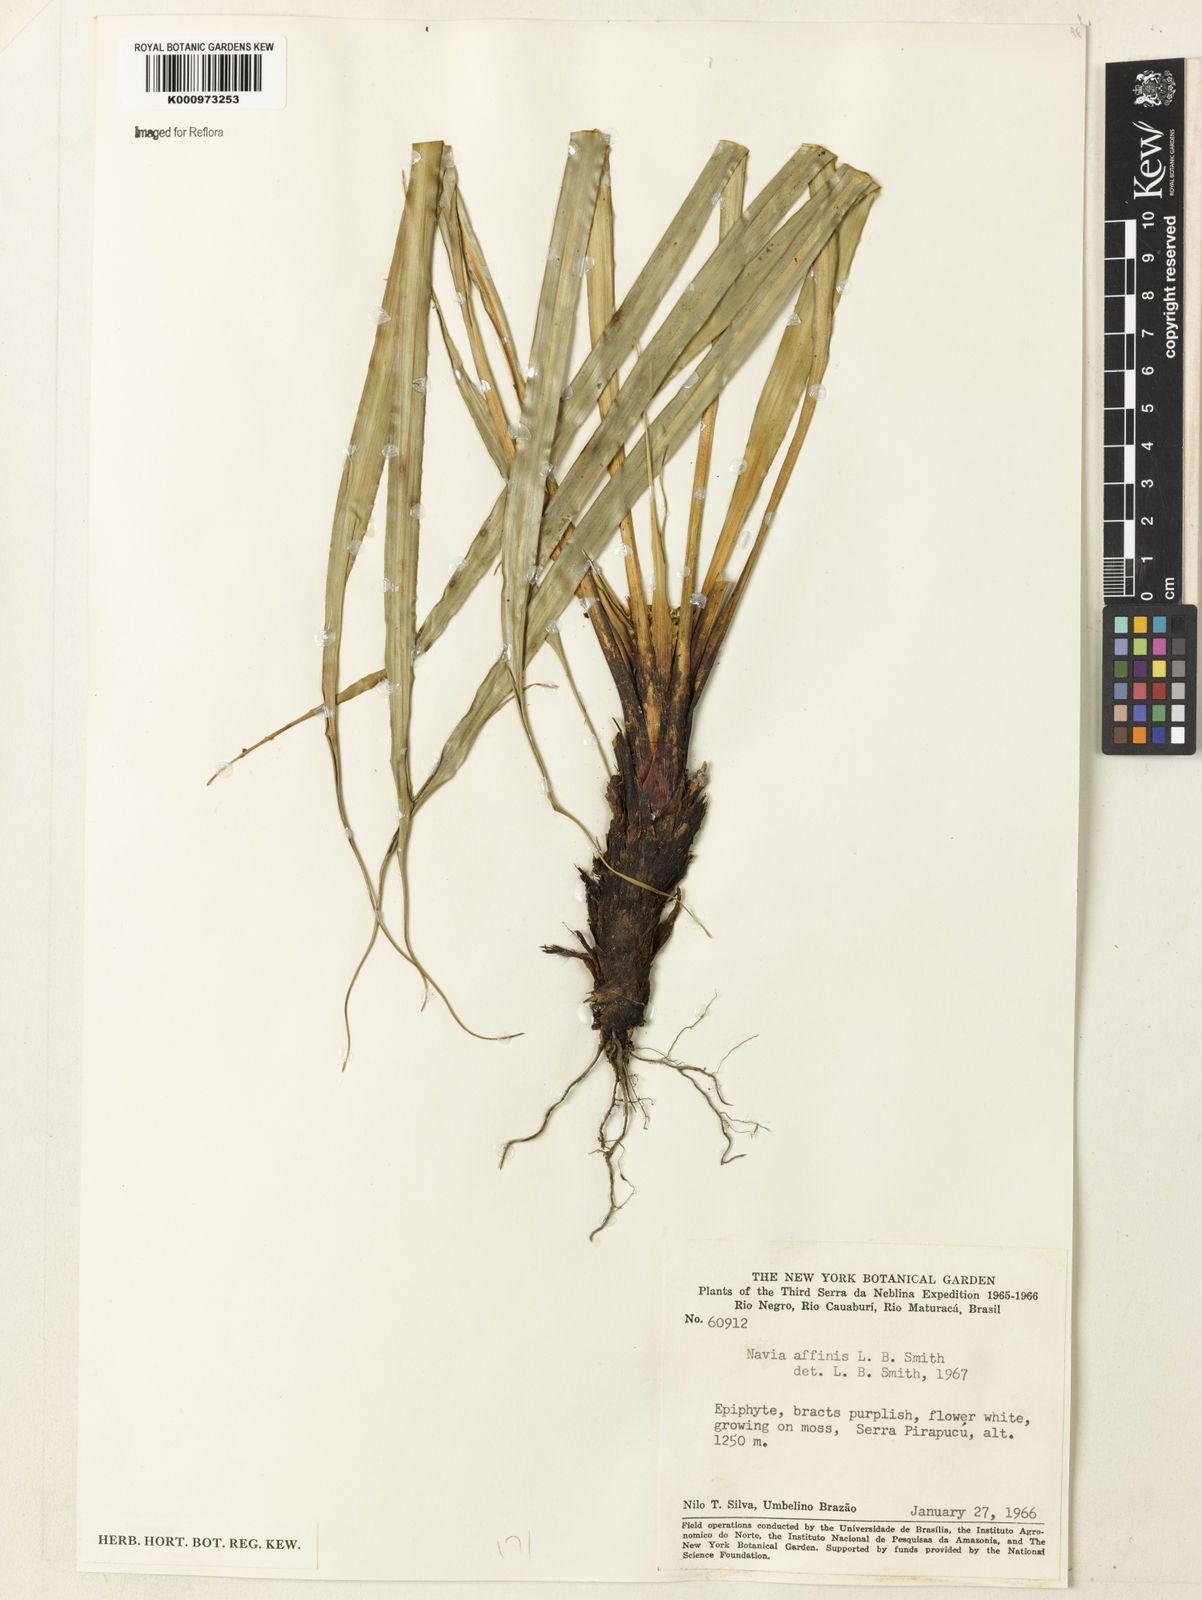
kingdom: Plantae
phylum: Tracheophyta
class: Liliopsida
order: Poales
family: Bromeliaceae
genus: Navia
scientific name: Navia affinis
